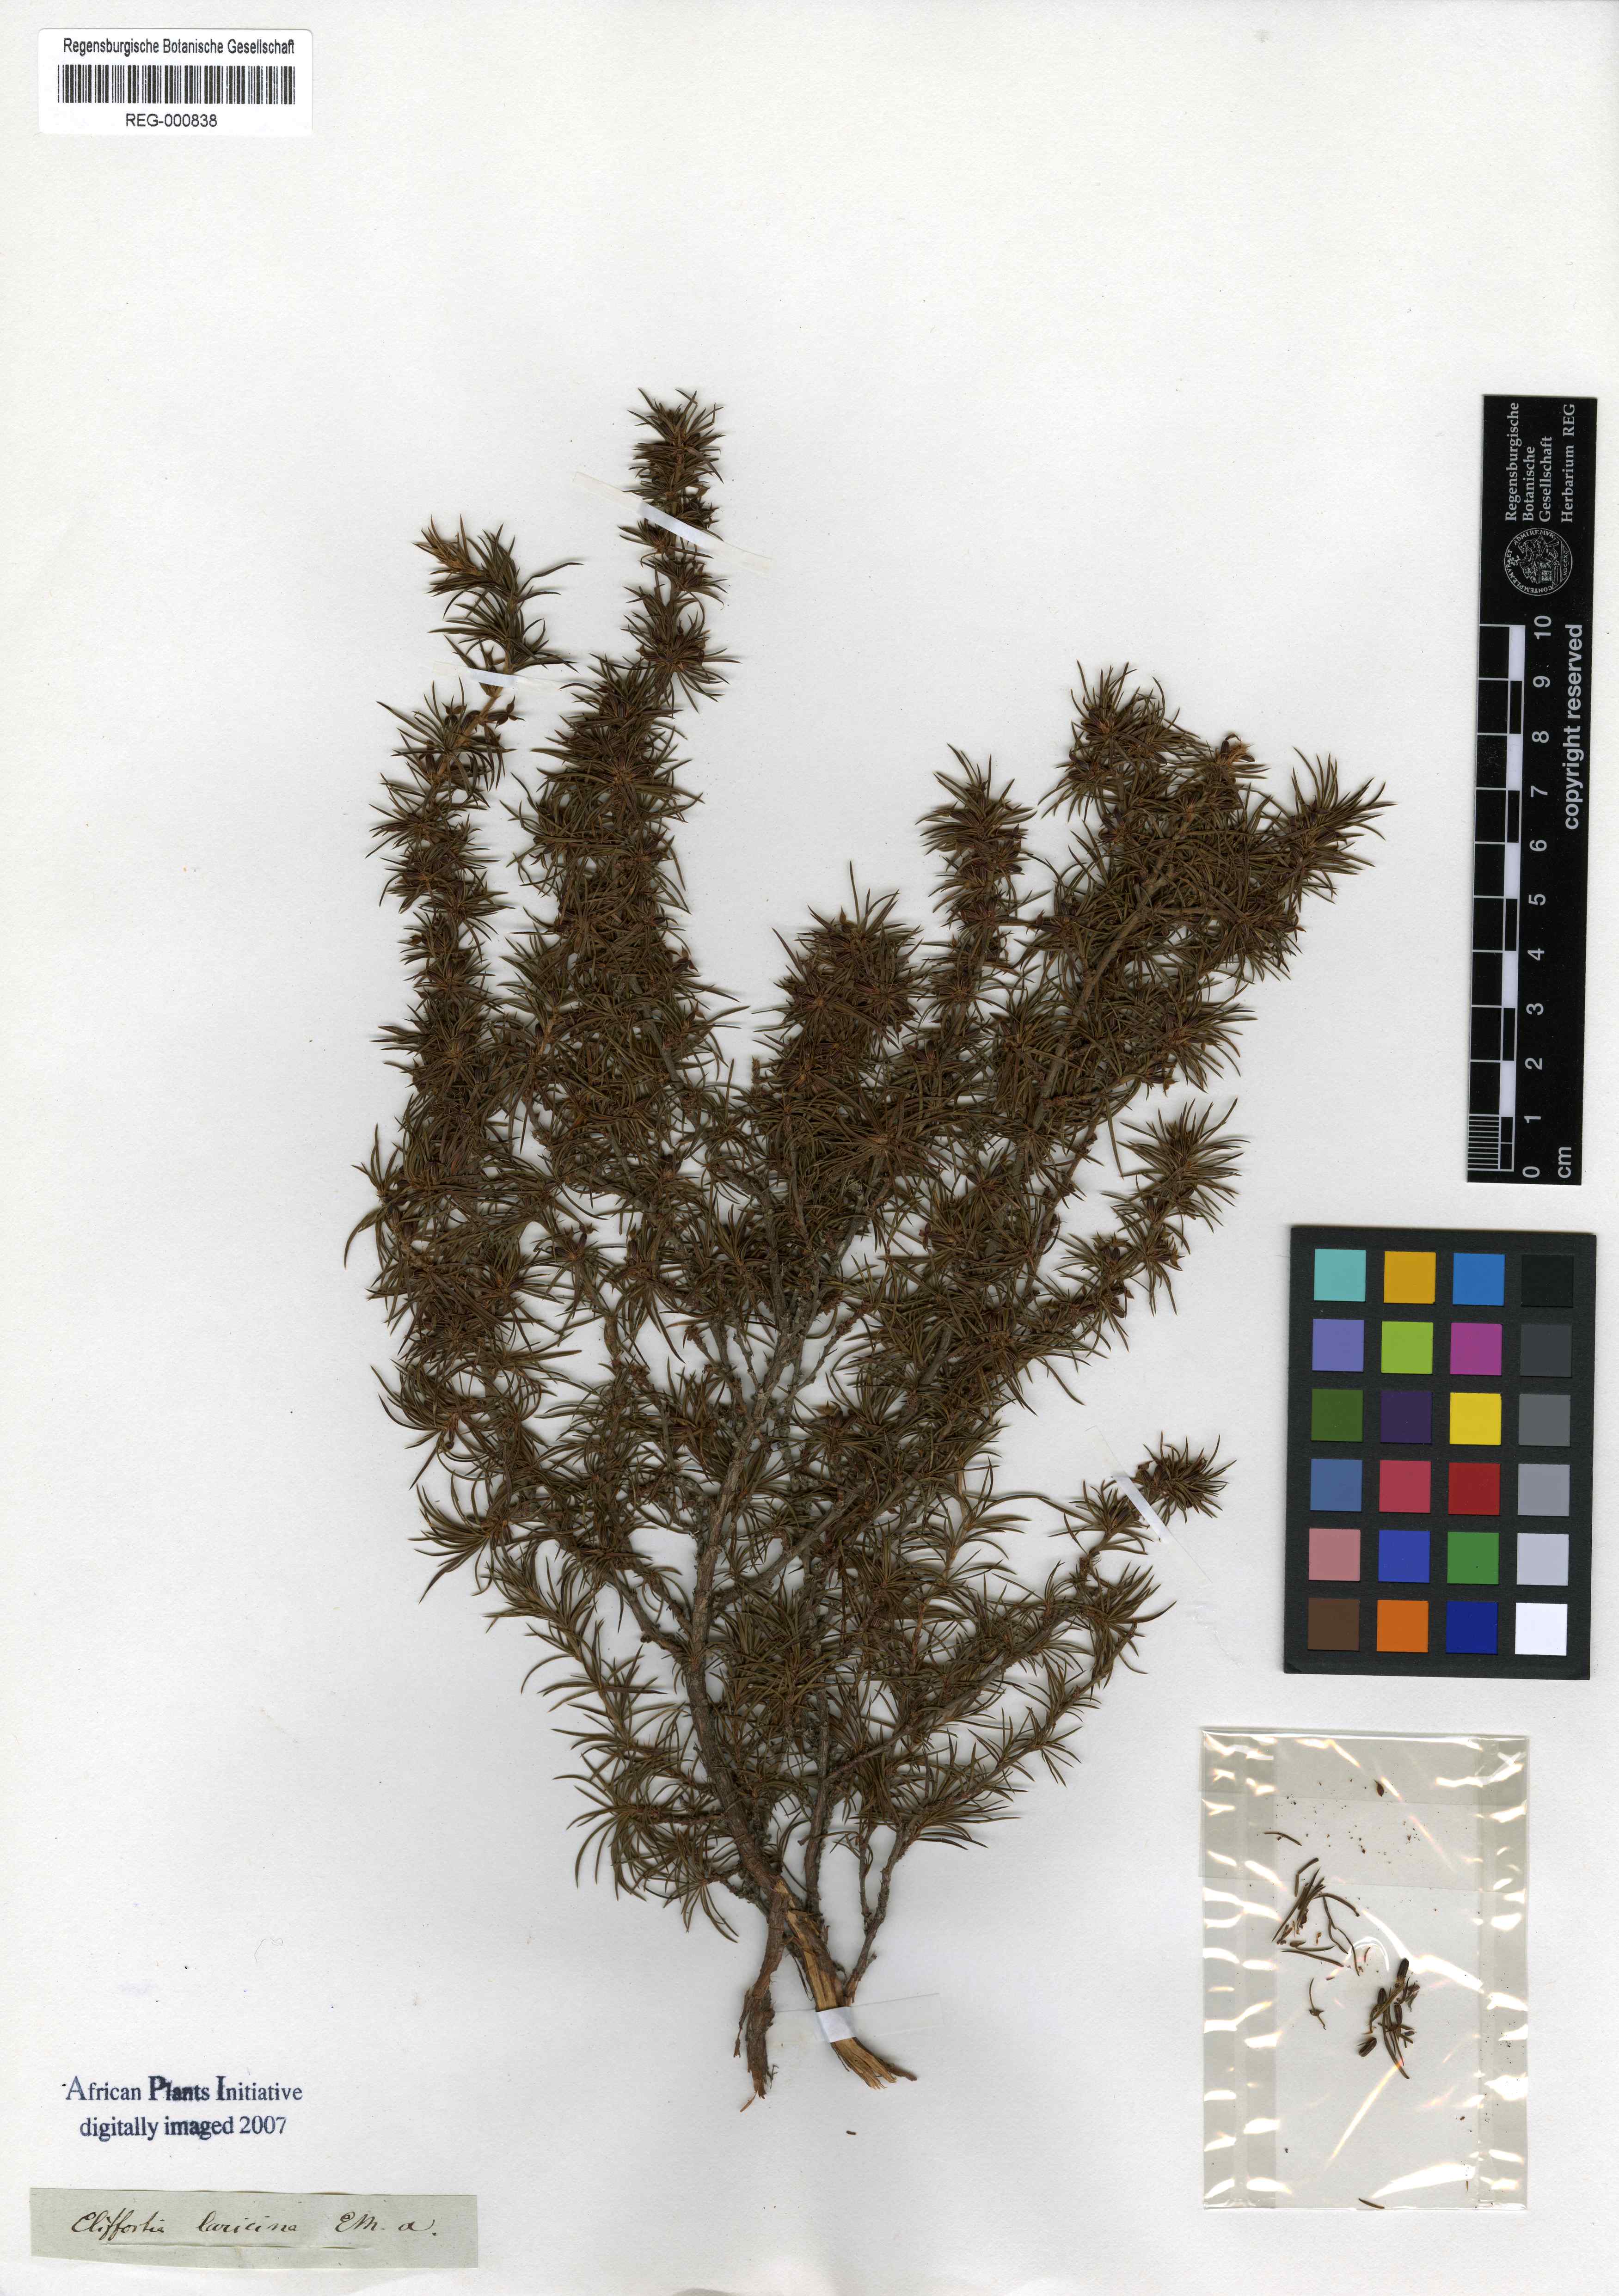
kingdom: Plantae
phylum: Tracheophyta
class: Magnoliopsida
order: Rosales
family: Rosaceae
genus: Cliffortia
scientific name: Cliffortia
